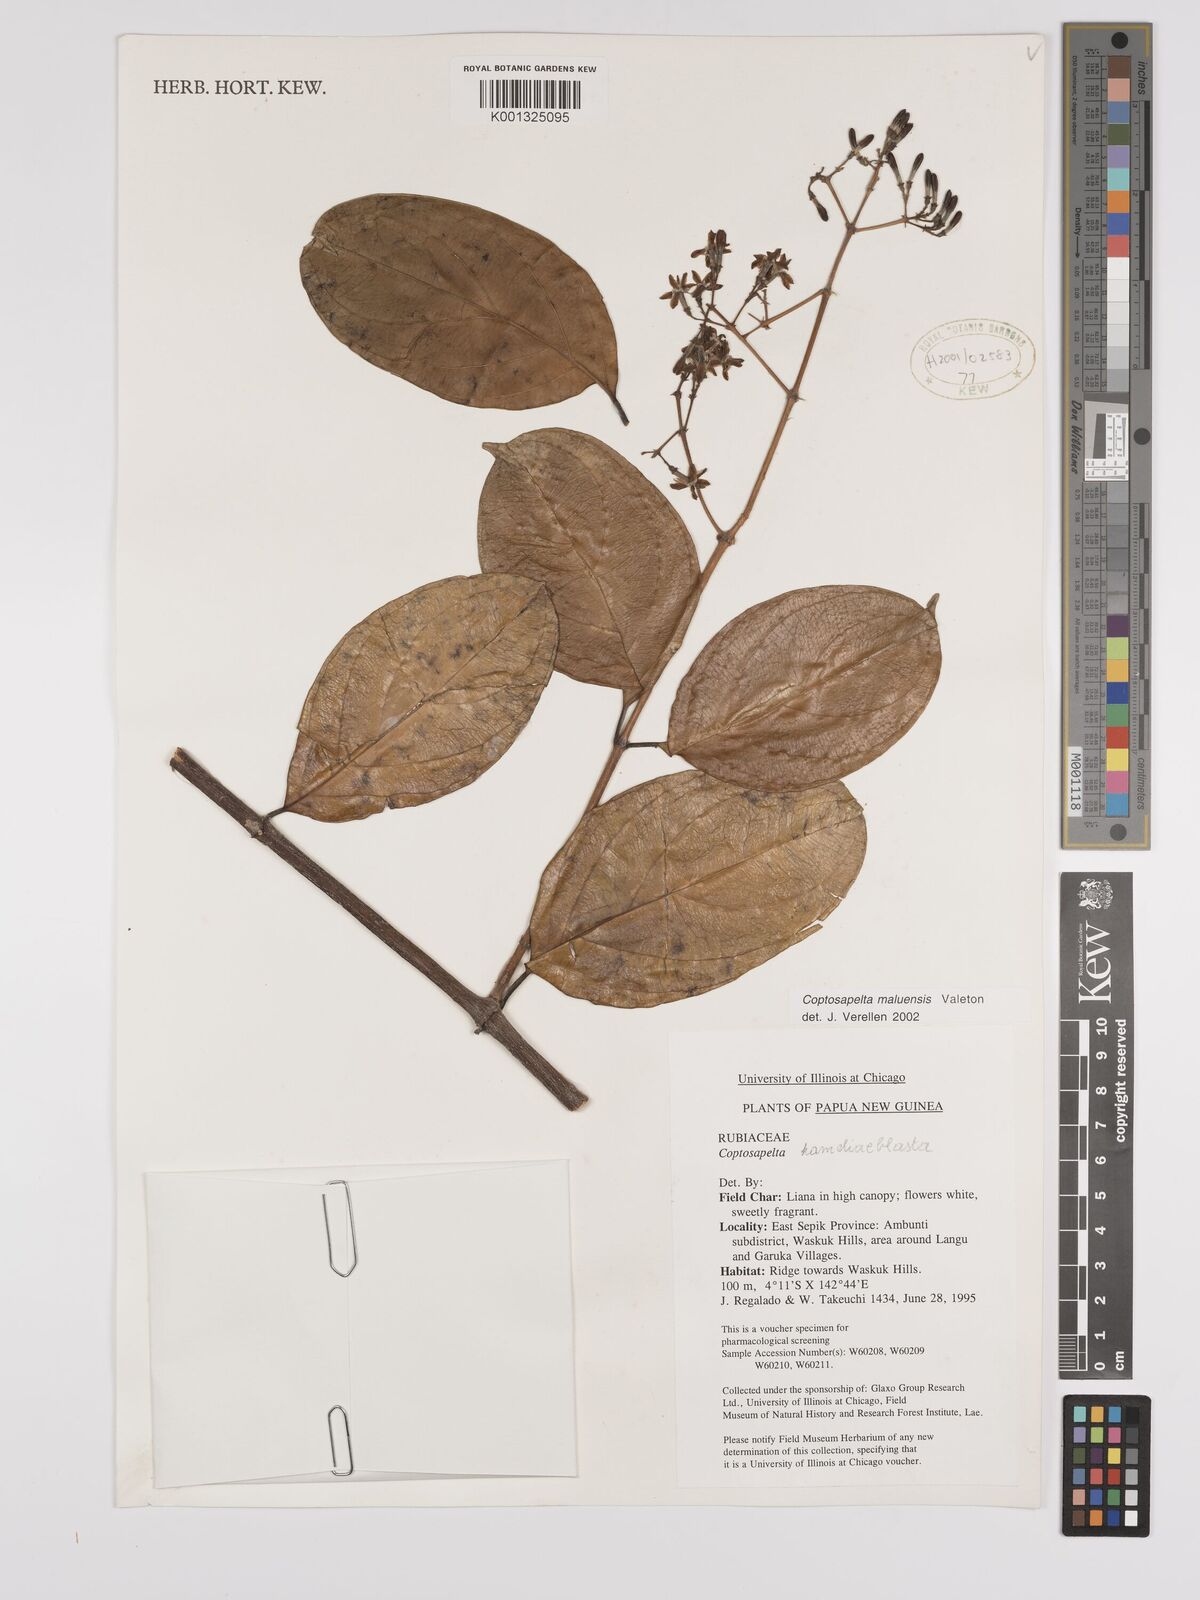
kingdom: Plantae
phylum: Tracheophyta
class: Magnoliopsida
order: Gentianales
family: Rubiaceae
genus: Coptosapelta
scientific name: Coptosapelta maluensis
